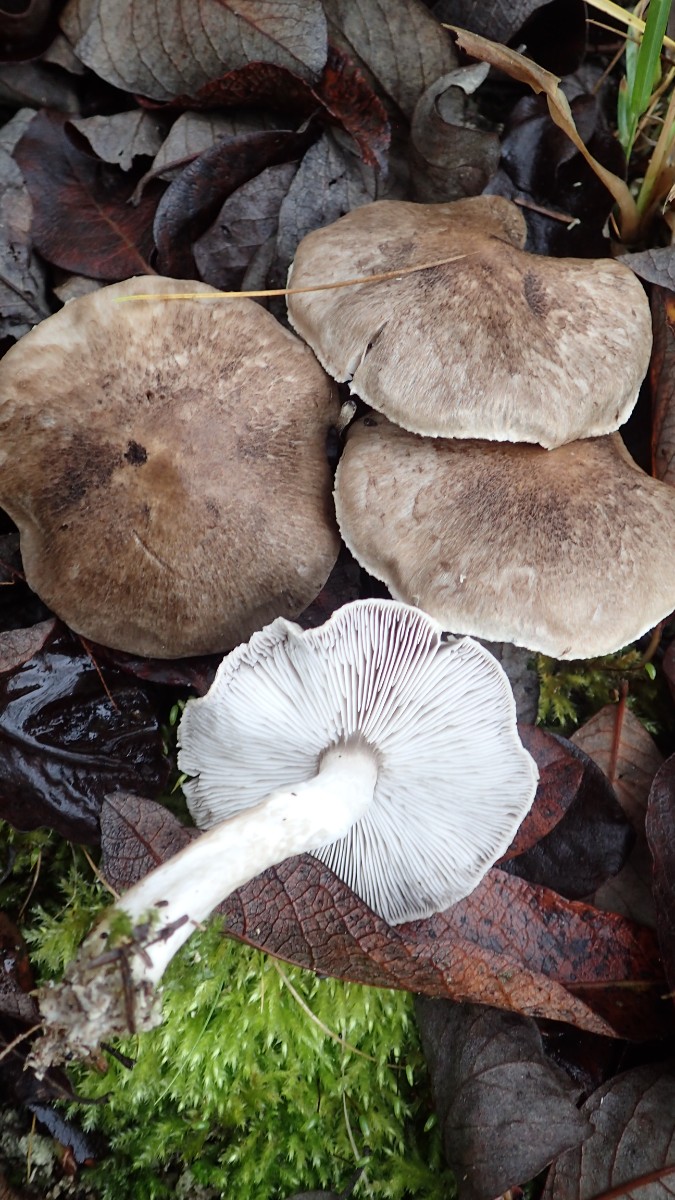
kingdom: Fungi
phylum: Basidiomycota
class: Agaricomycetes
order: Agaricales
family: Tricholomataceae
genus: Tricholoma
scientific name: Tricholoma cingulatum
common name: ring-ridderhat
